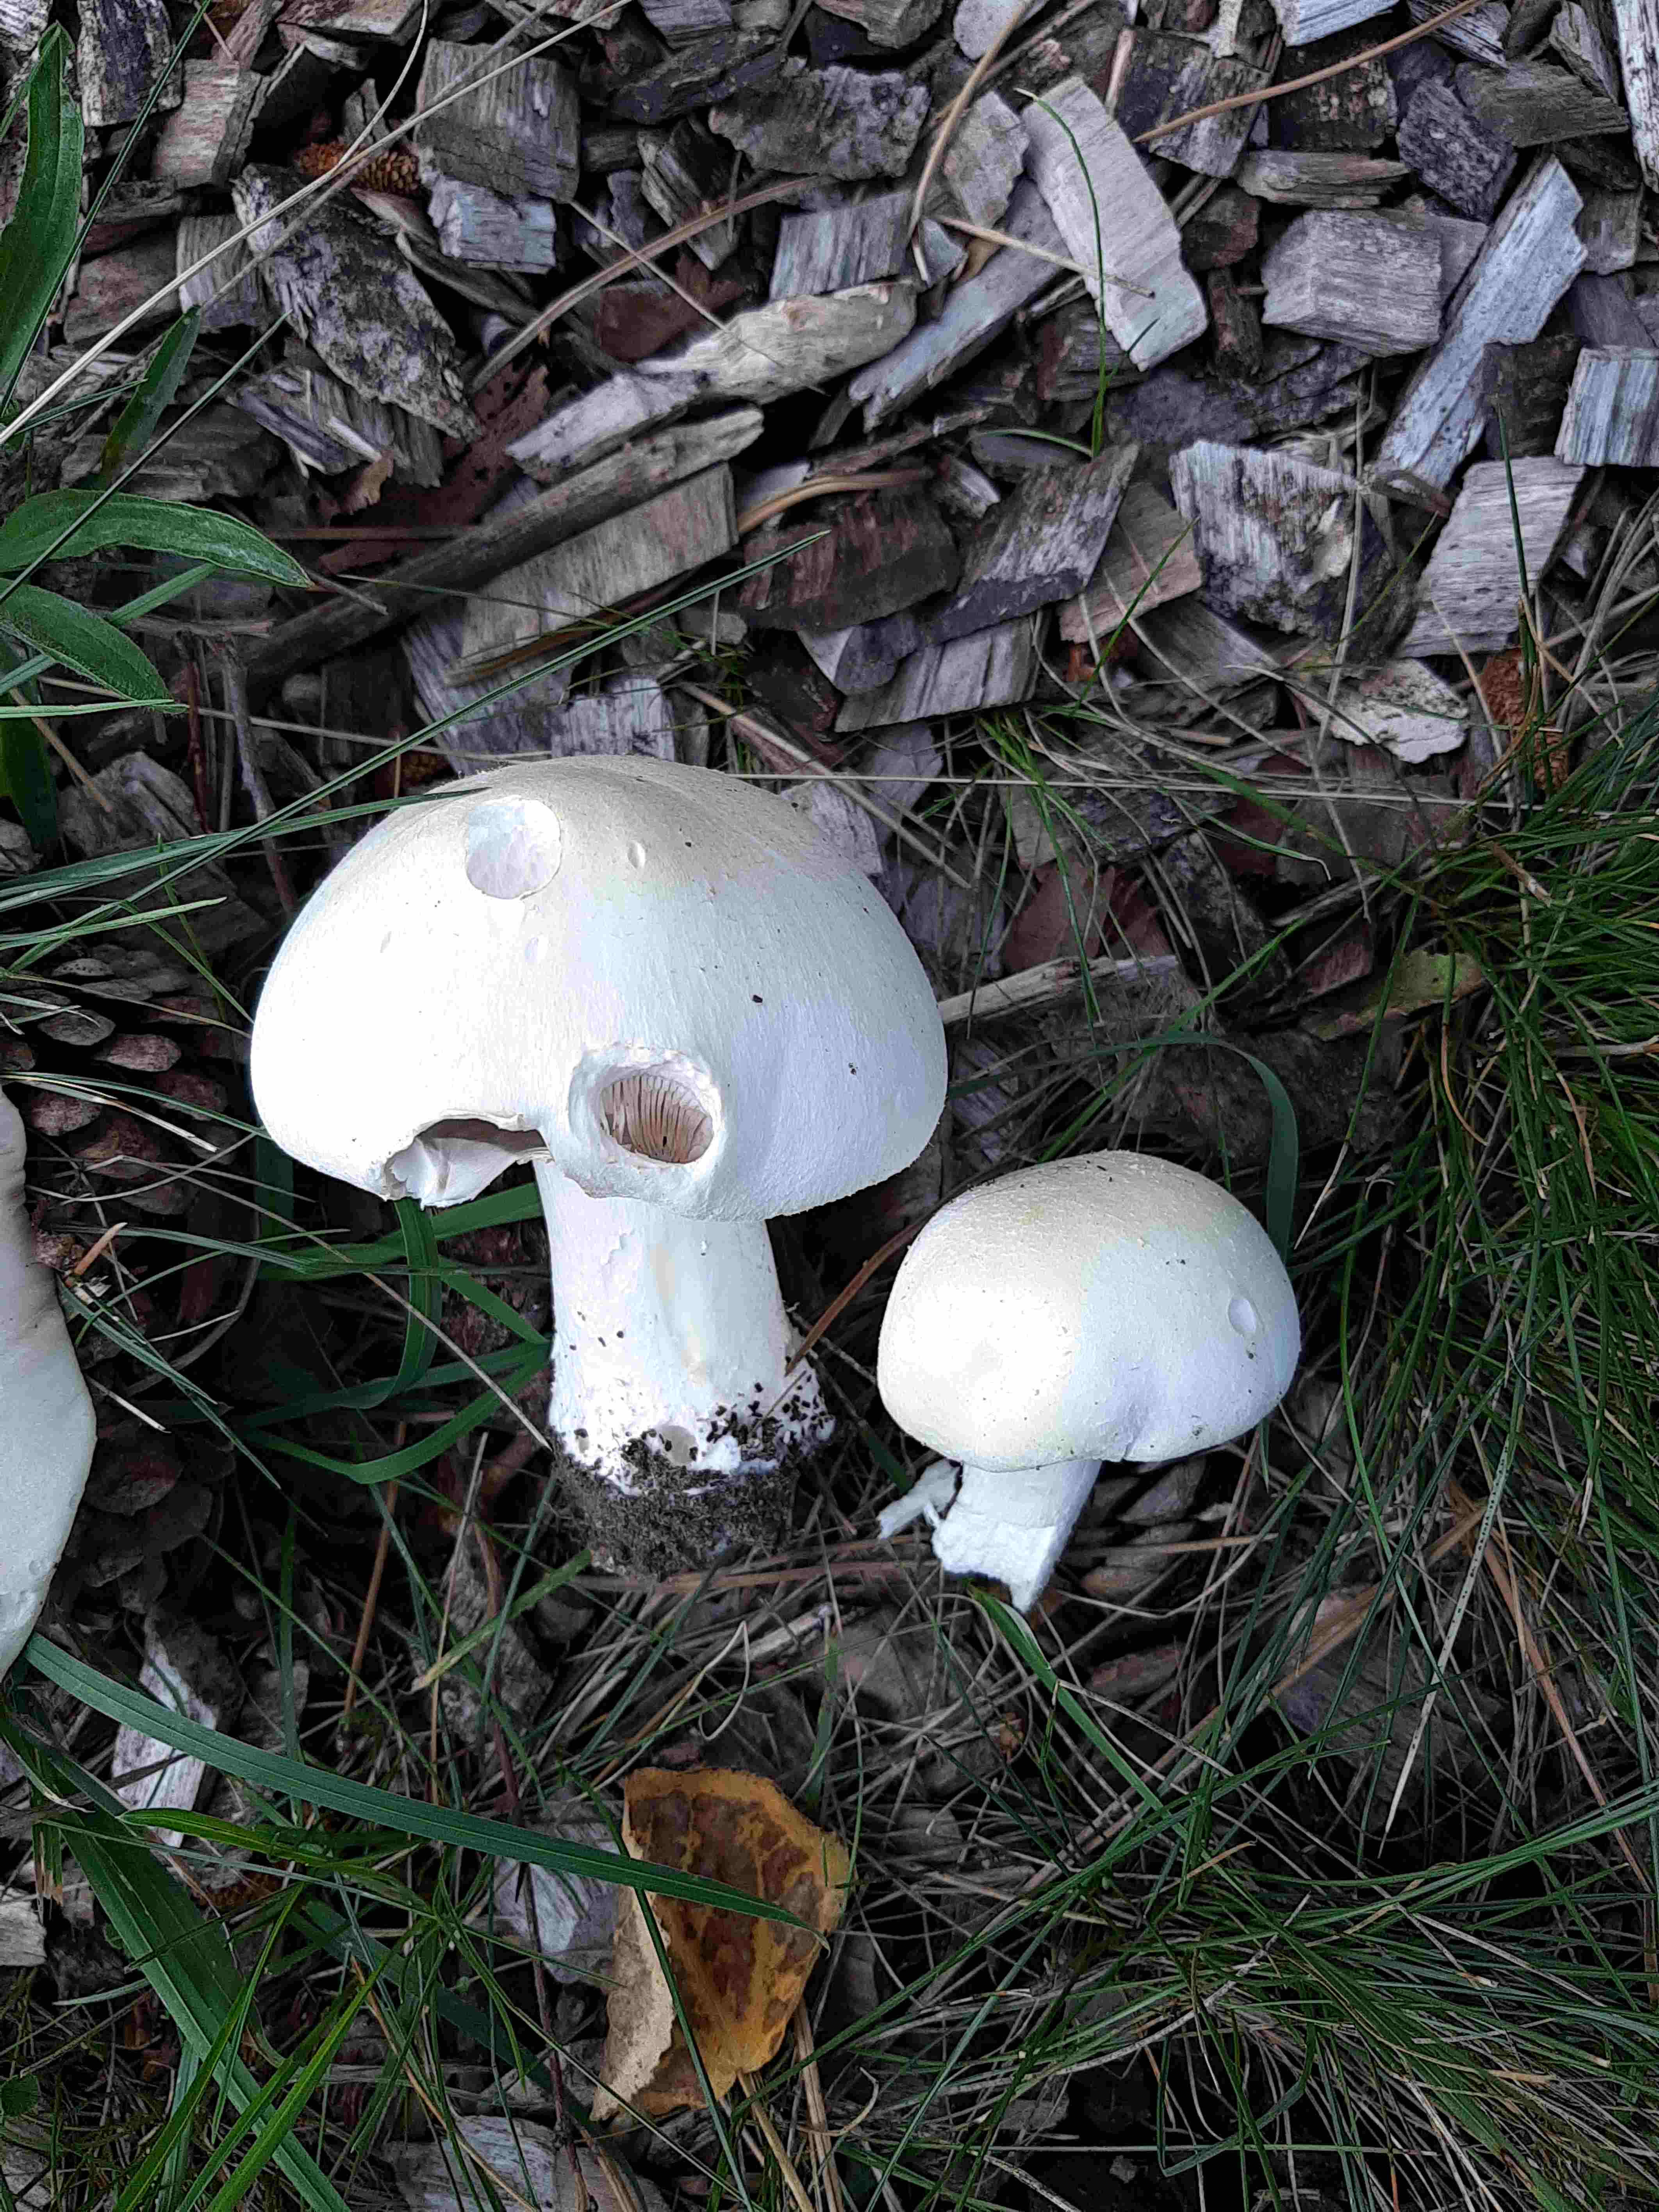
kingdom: Fungi
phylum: Basidiomycota
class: Agaricomycetes
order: Agaricales
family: Agaricaceae
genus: Agaricus
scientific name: Agaricus arvensis
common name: ager-champignon
